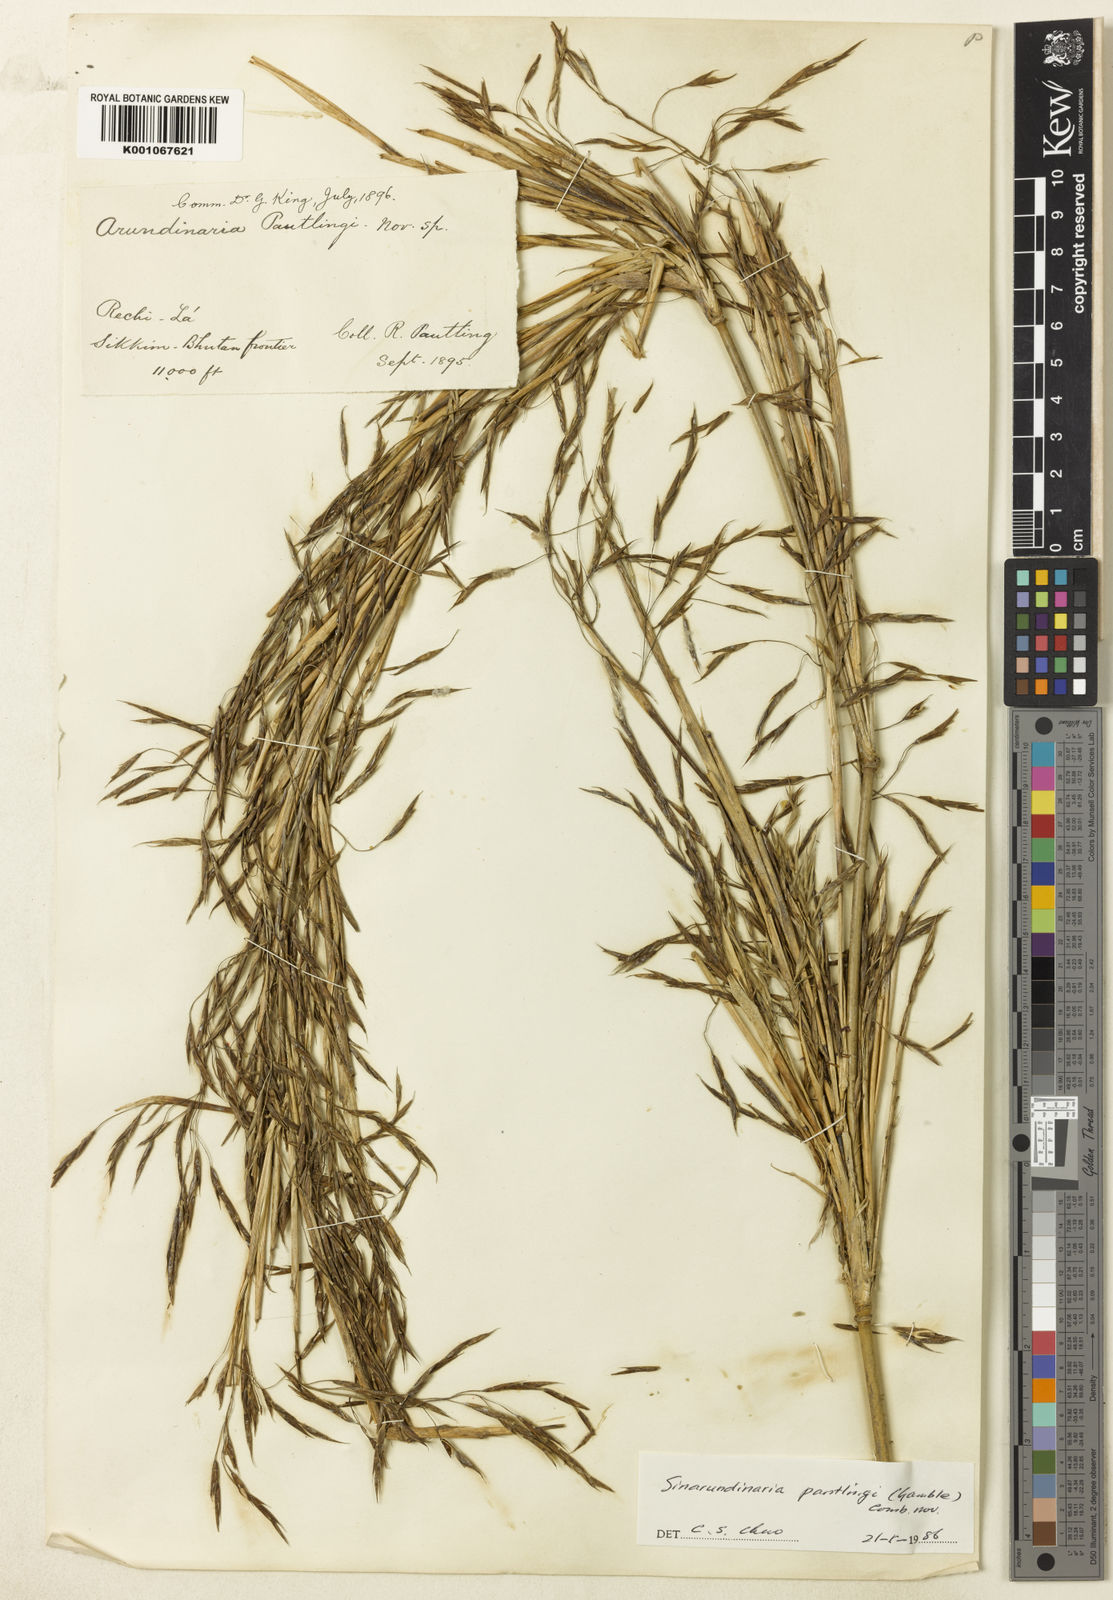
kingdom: Plantae
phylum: Tracheophyta
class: Liliopsida
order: Poales
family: Poaceae
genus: Yushania
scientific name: Yushania pantlingii
